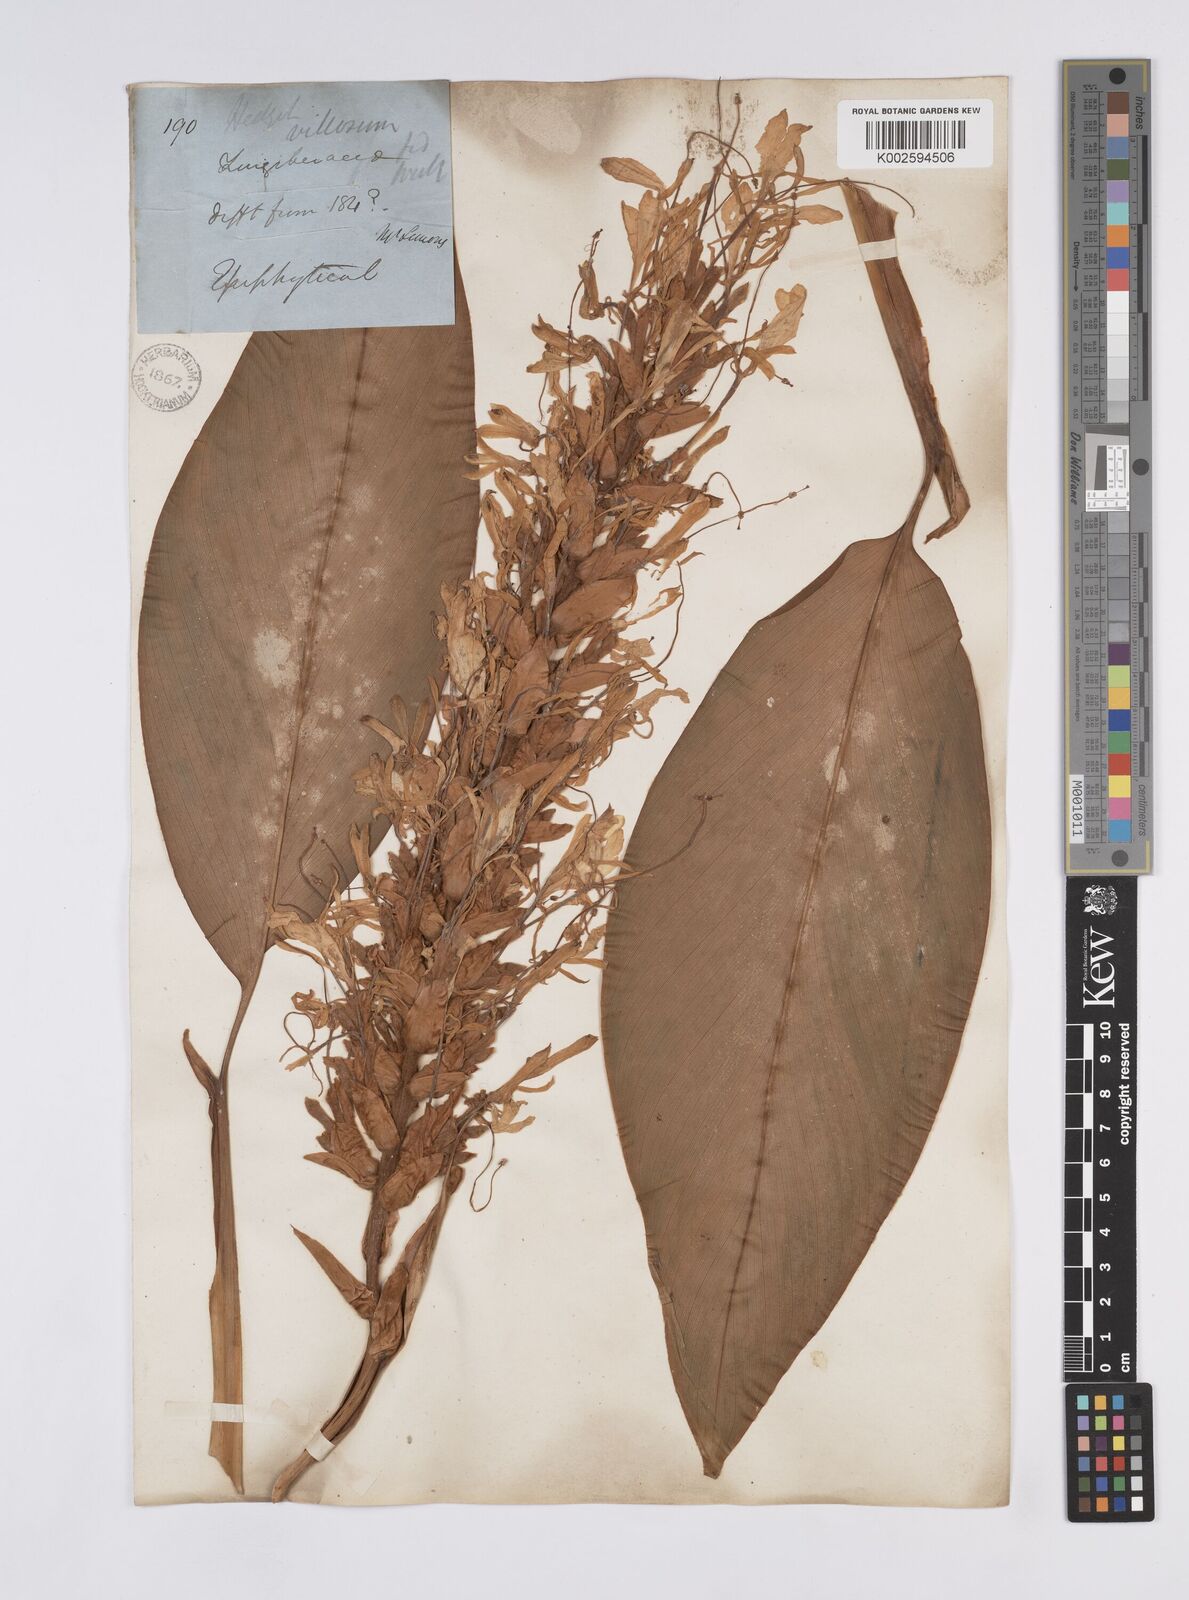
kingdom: Plantae
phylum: Tracheophyta
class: Liliopsida
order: Zingiberales
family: Zingiberaceae
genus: Hedychium
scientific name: Hedychium villosum
